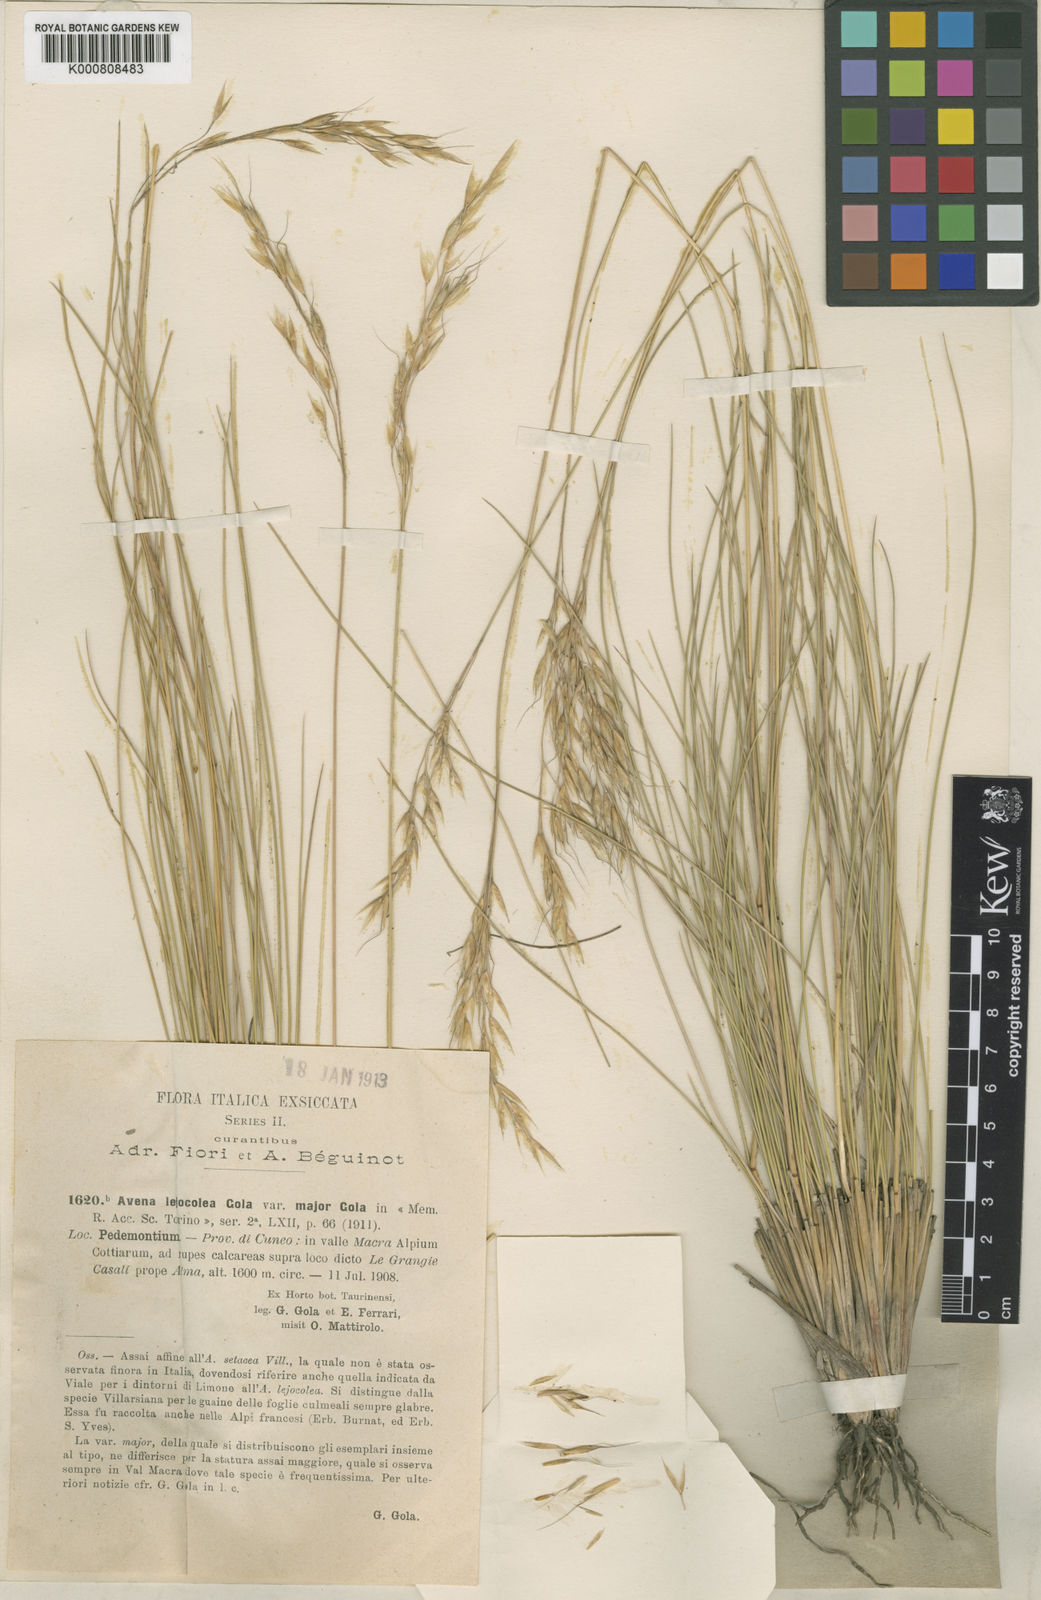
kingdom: Plantae
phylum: Tracheophyta
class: Liliopsida
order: Poales
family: Poaceae
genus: Helictotrichon
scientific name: Helictotrichon setaceum
